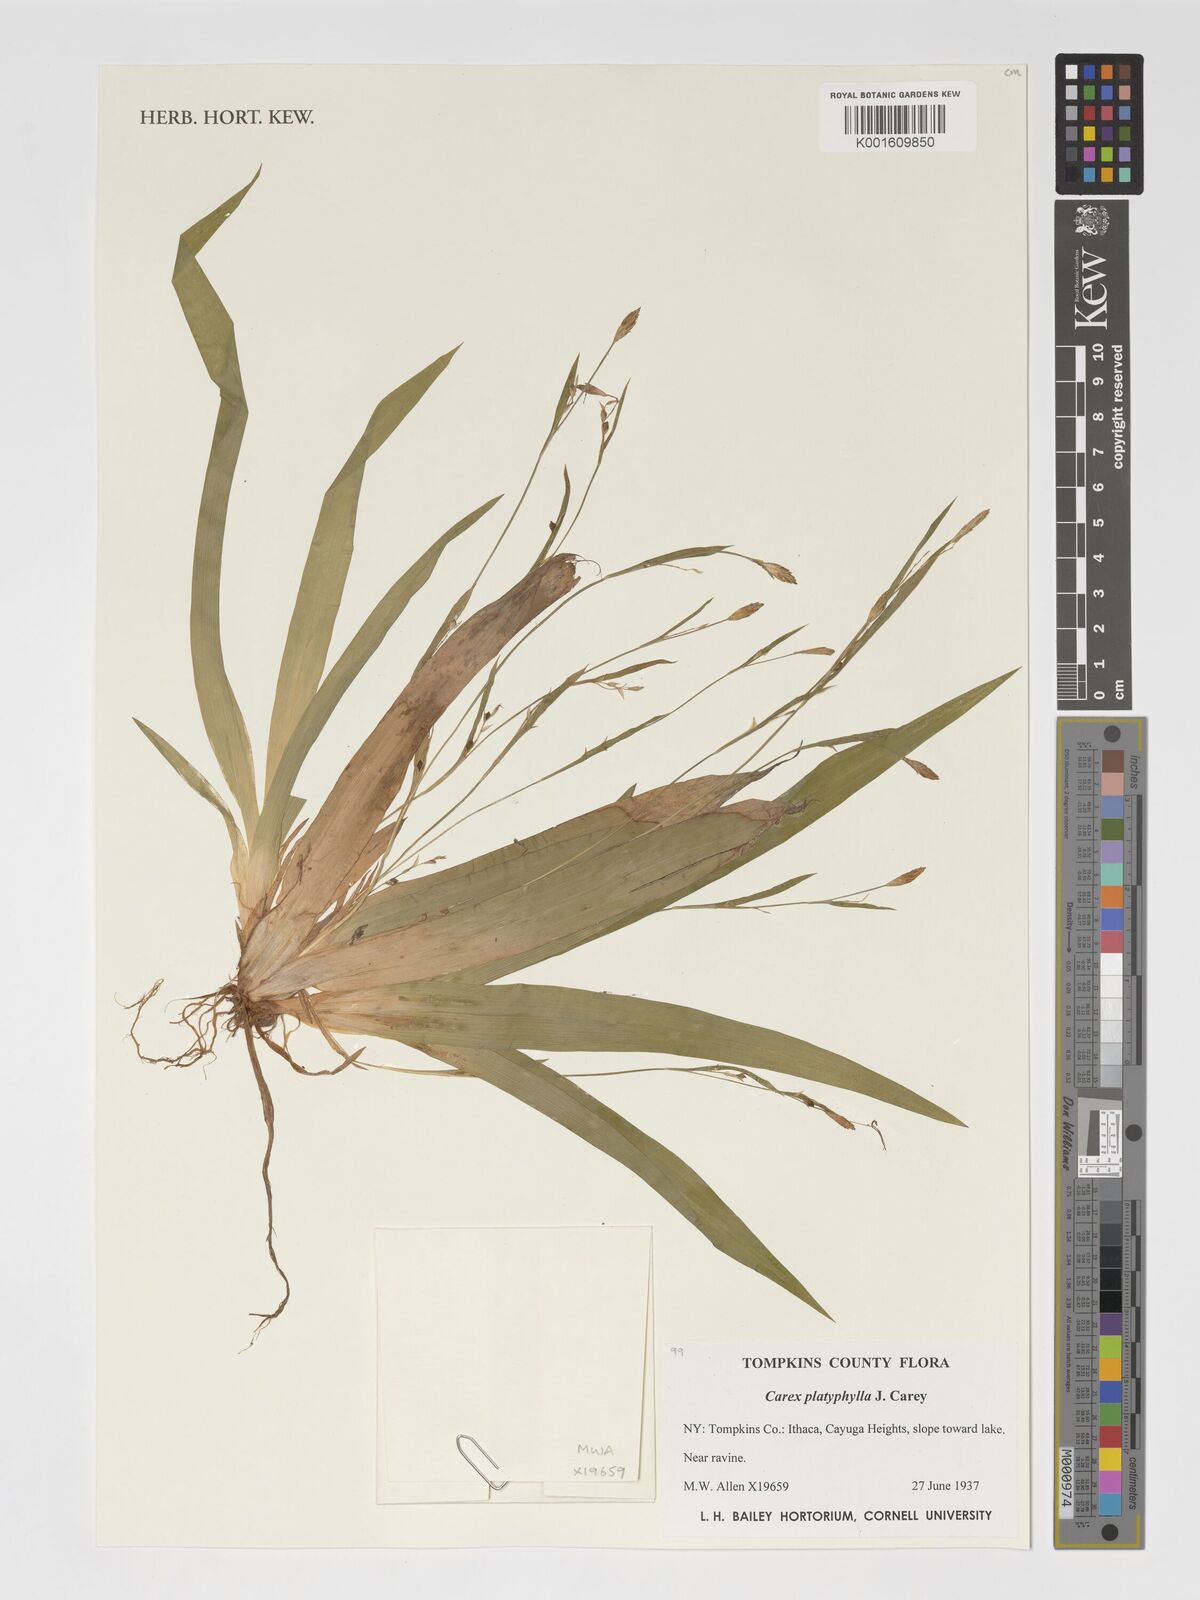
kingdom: Plantae
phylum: Tracheophyta
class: Liliopsida
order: Poales
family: Cyperaceae
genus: Carex
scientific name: Carex platyphylla
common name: Broad-leaved sedge
